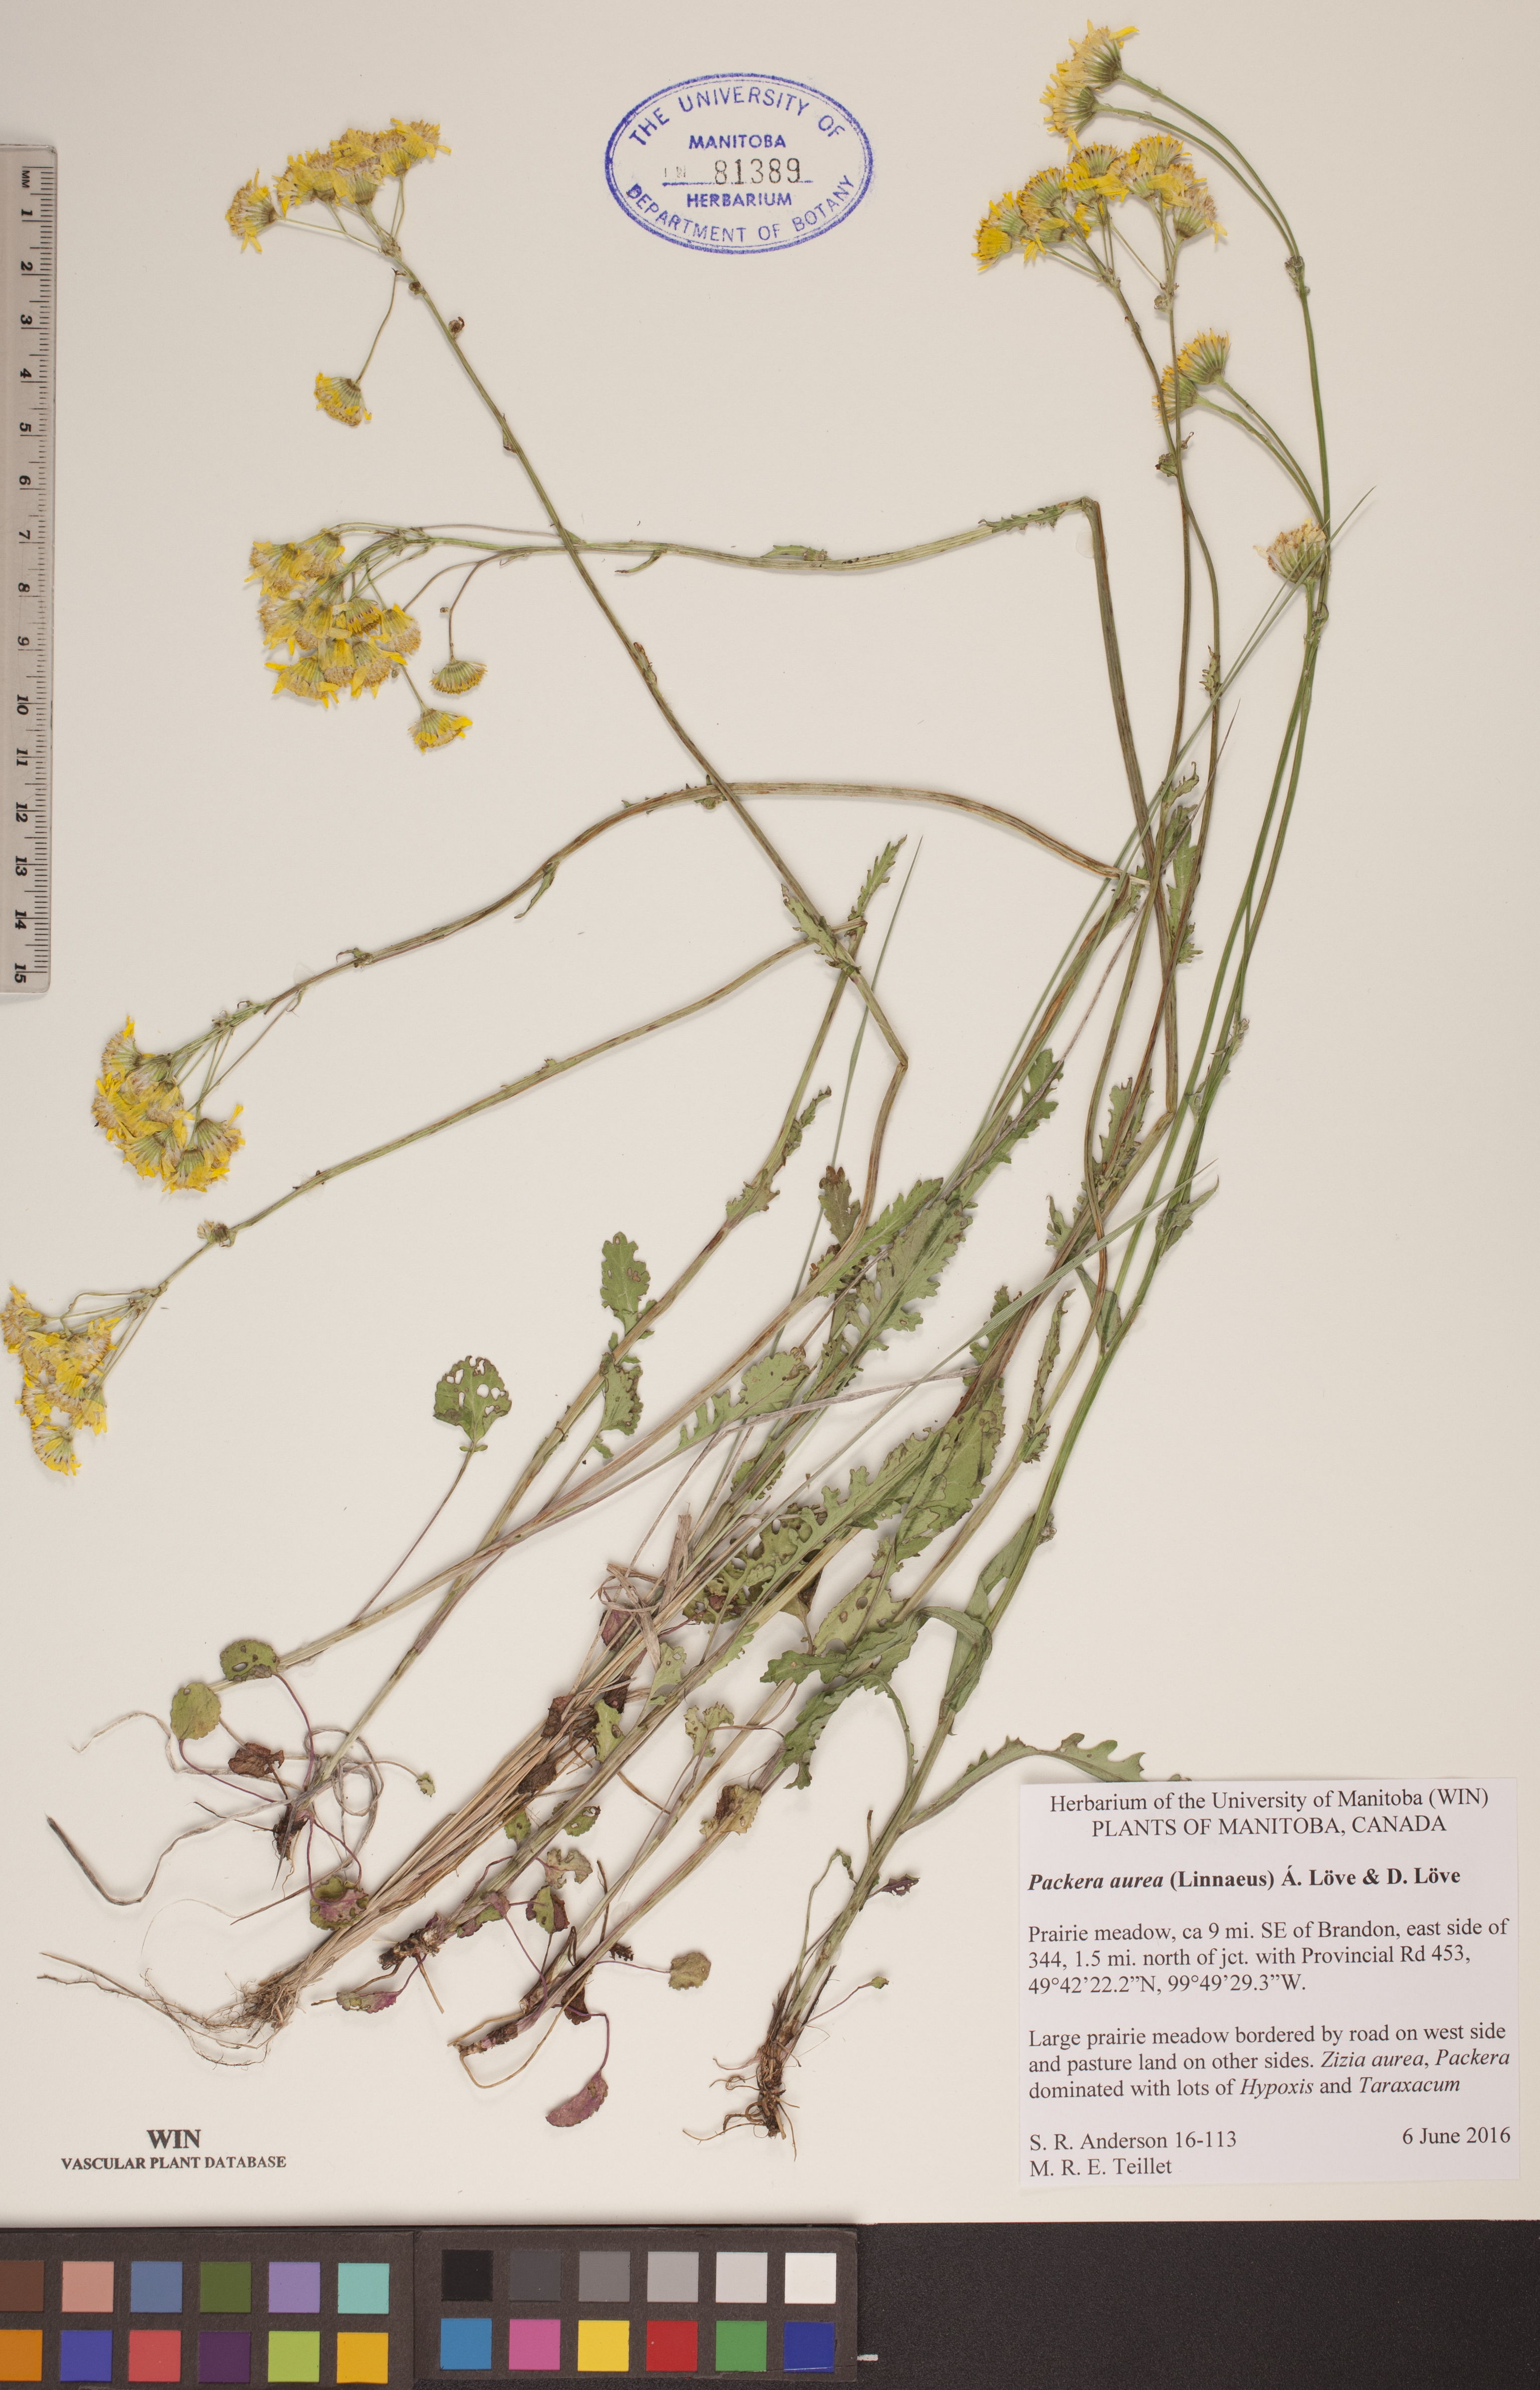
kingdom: Plantae
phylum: Tracheophyta
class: Magnoliopsida
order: Asterales
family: Asteraceae
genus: Packera
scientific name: Packera aurea
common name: Golden groundsel
